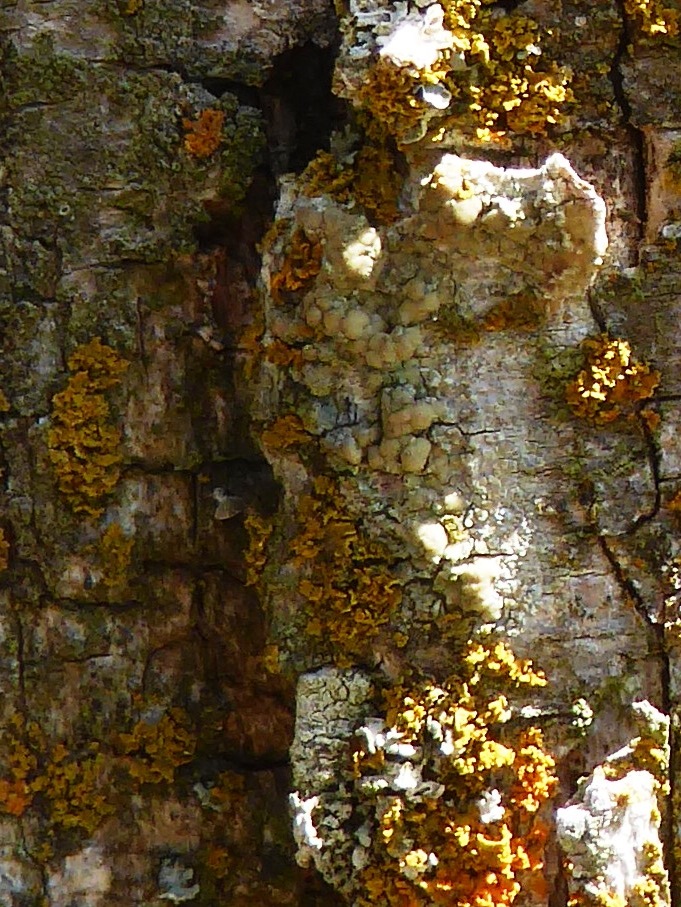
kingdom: Fungi
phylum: Ascomycota
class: Lecanoromycetes
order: Lecanorales
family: Lecanoraceae
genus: Lecanora
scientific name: Lecanora symmicta
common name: kvist-kantskivelav
